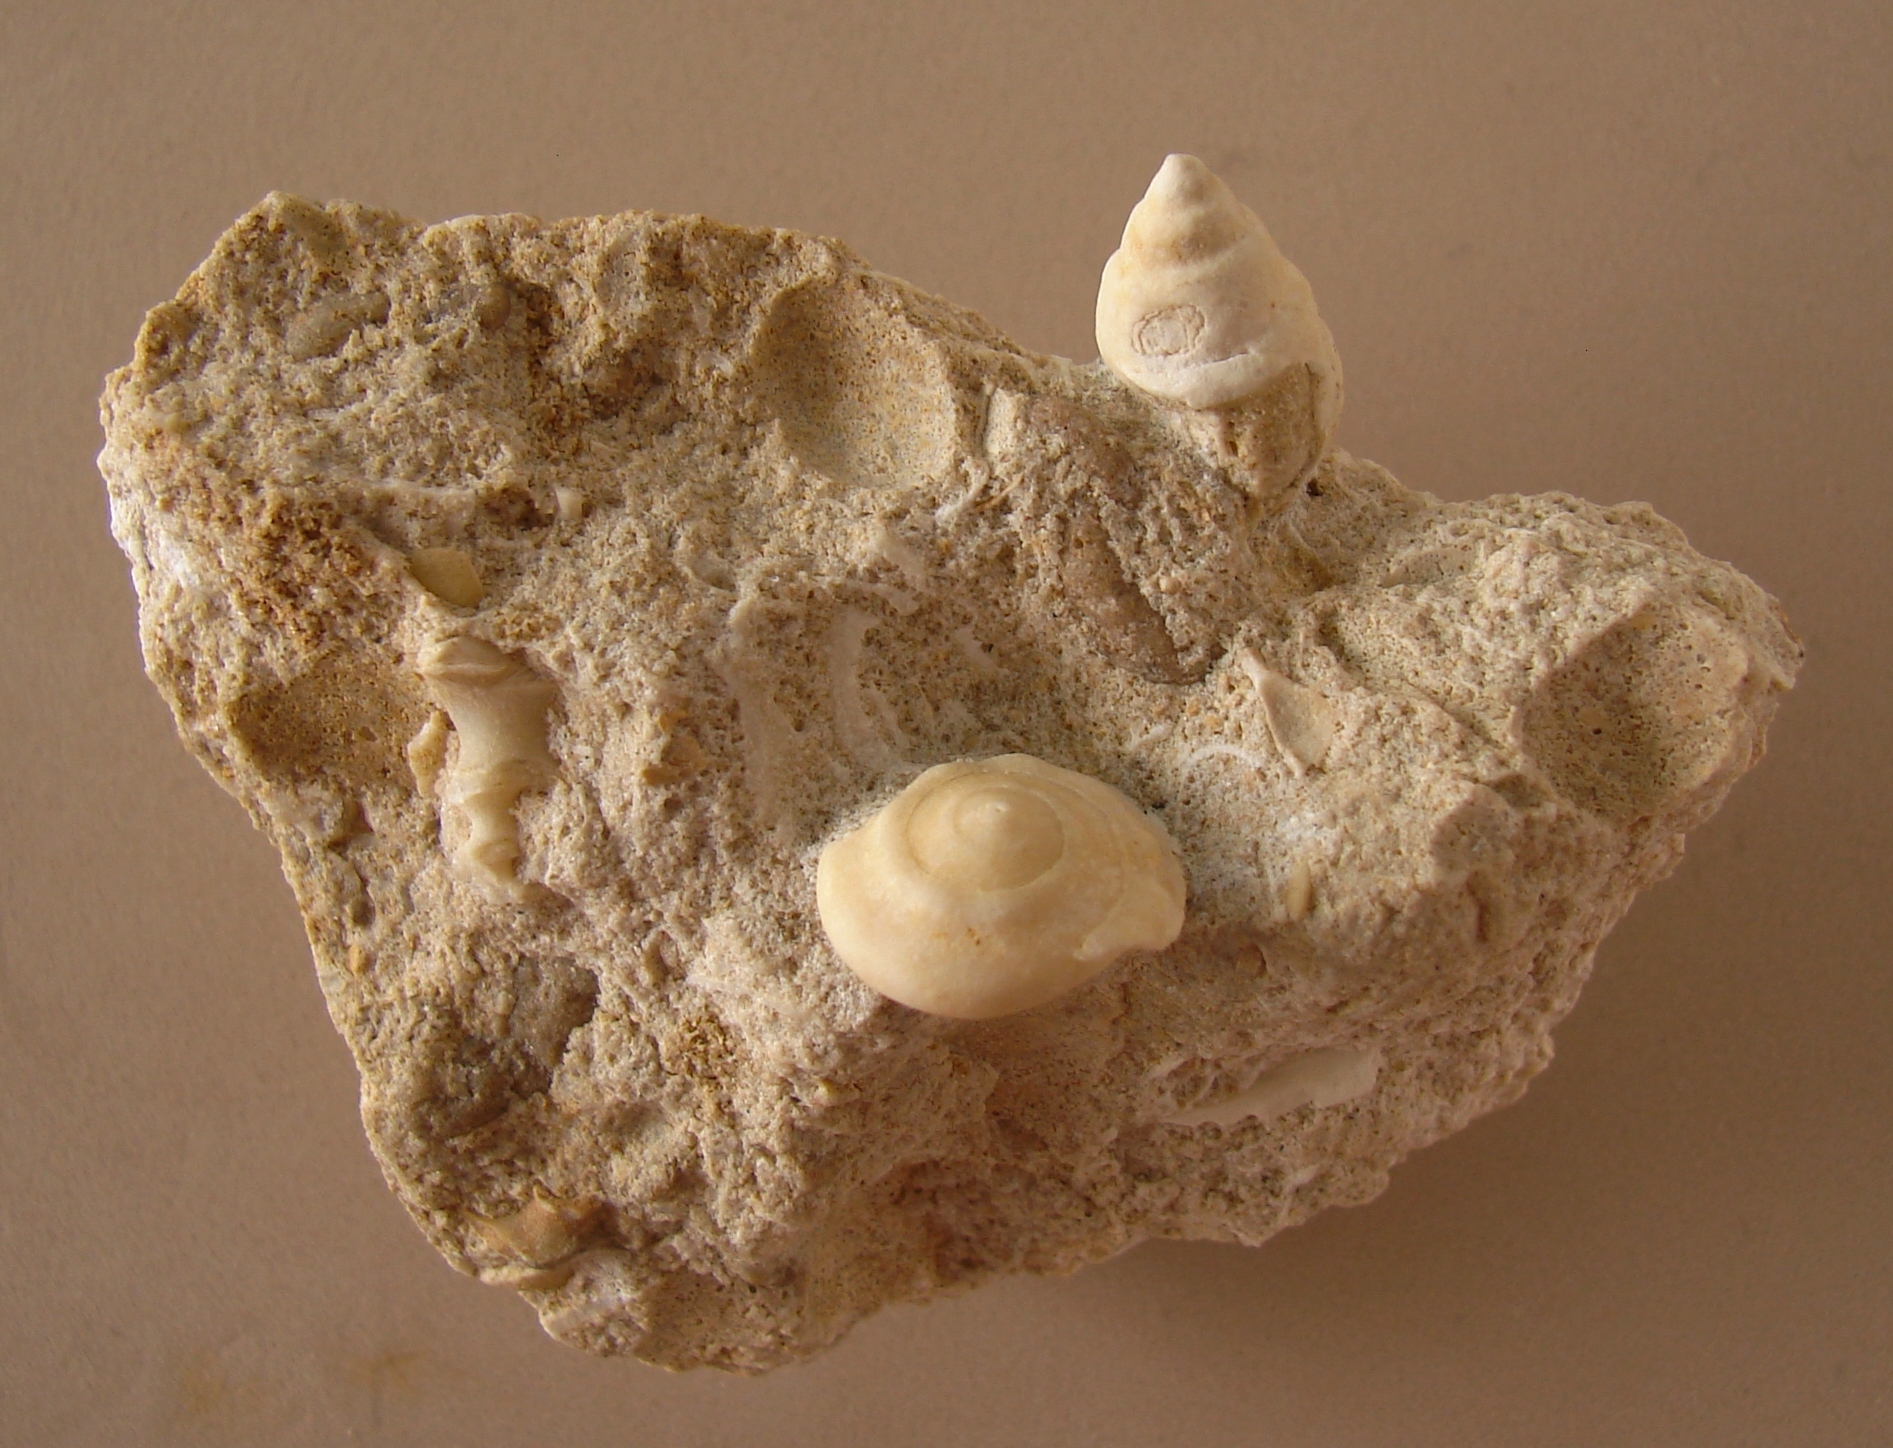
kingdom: Animalia
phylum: Mollusca
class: Gastropoda
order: Neogastropoda
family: Purpurinidae
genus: Microschiza
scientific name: Microschiza Turbo semiornatus
